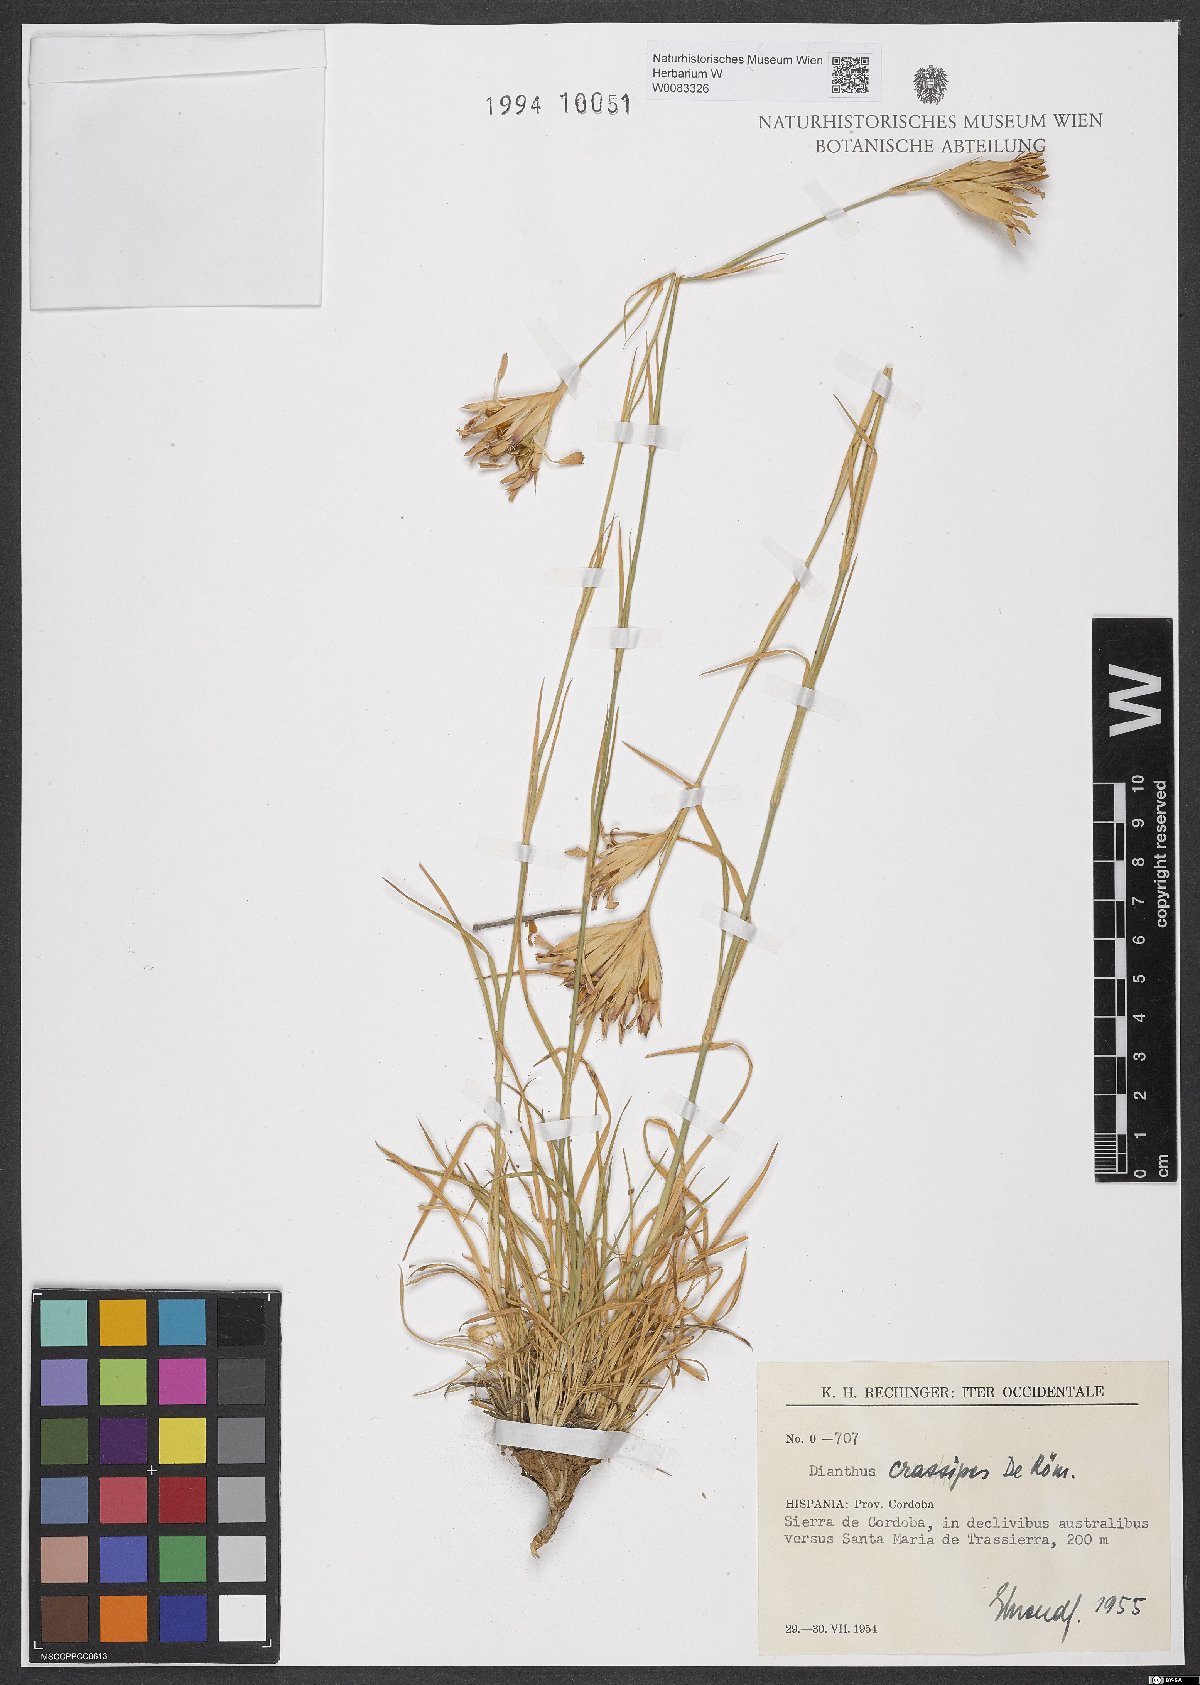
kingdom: Plantae
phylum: Tracheophyta
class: Magnoliopsida
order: Caryophyllales
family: Caryophyllaceae
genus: Dianthus
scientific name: Dianthus crassipes
